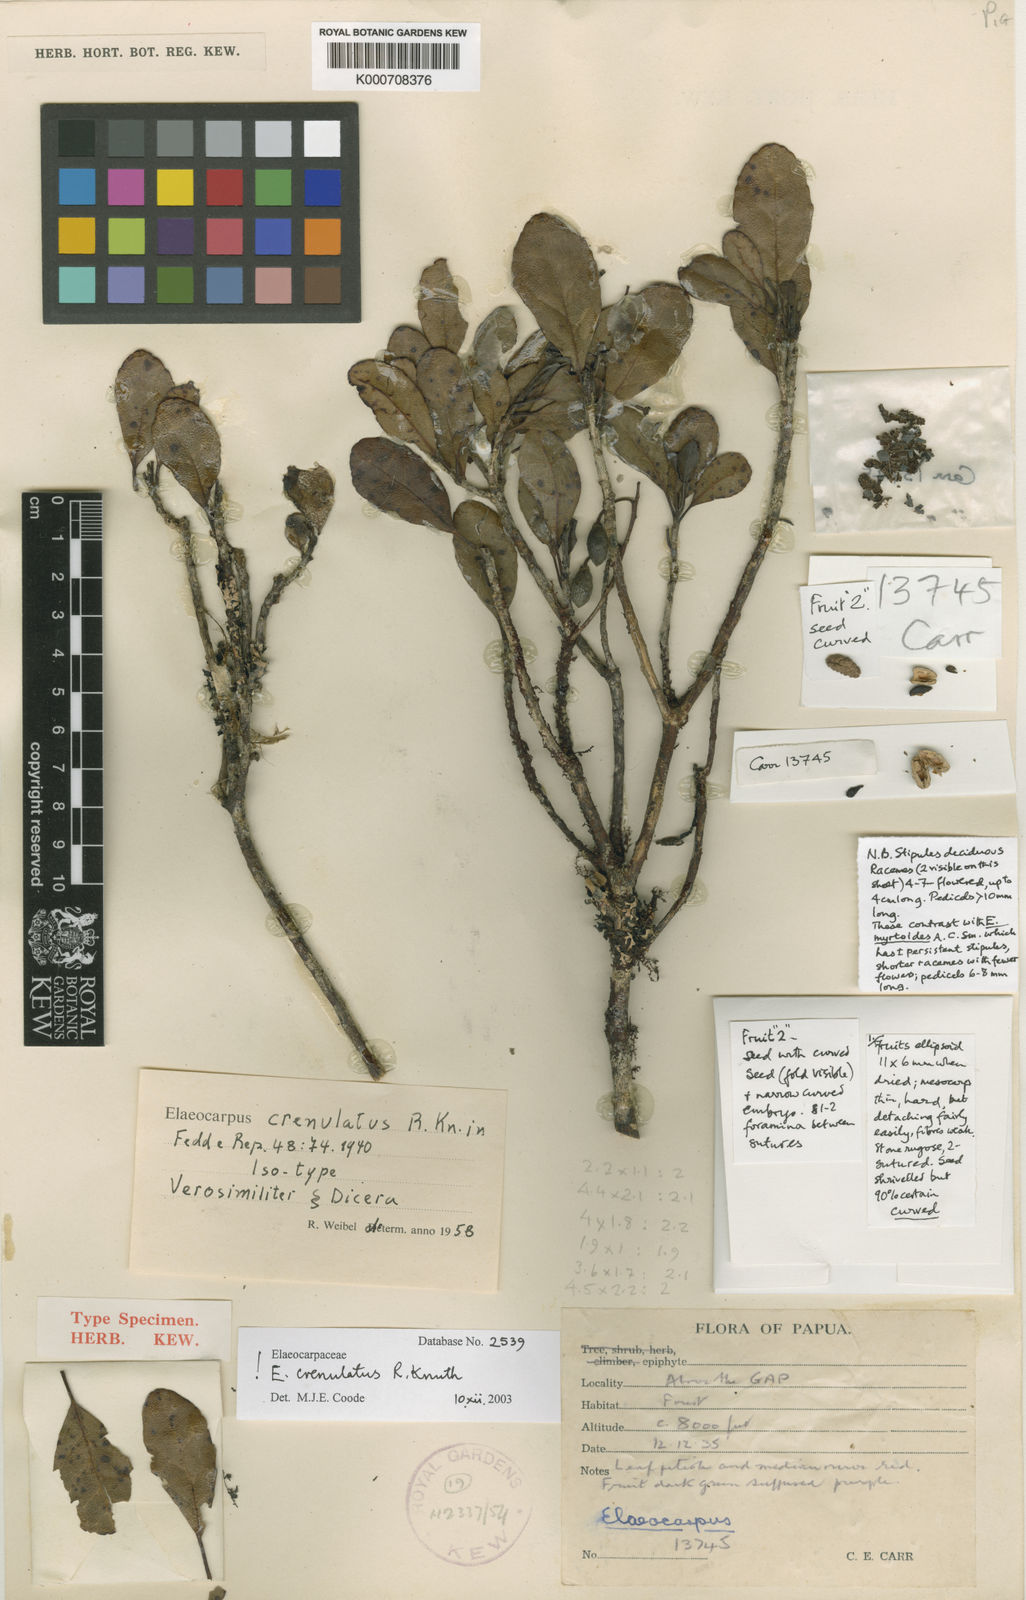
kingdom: Plantae
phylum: Tracheophyta
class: Magnoliopsida
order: Oxalidales
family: Elaeocarpaceae
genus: Elaeocarpus
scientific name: Elaeocarpus crenulatus
